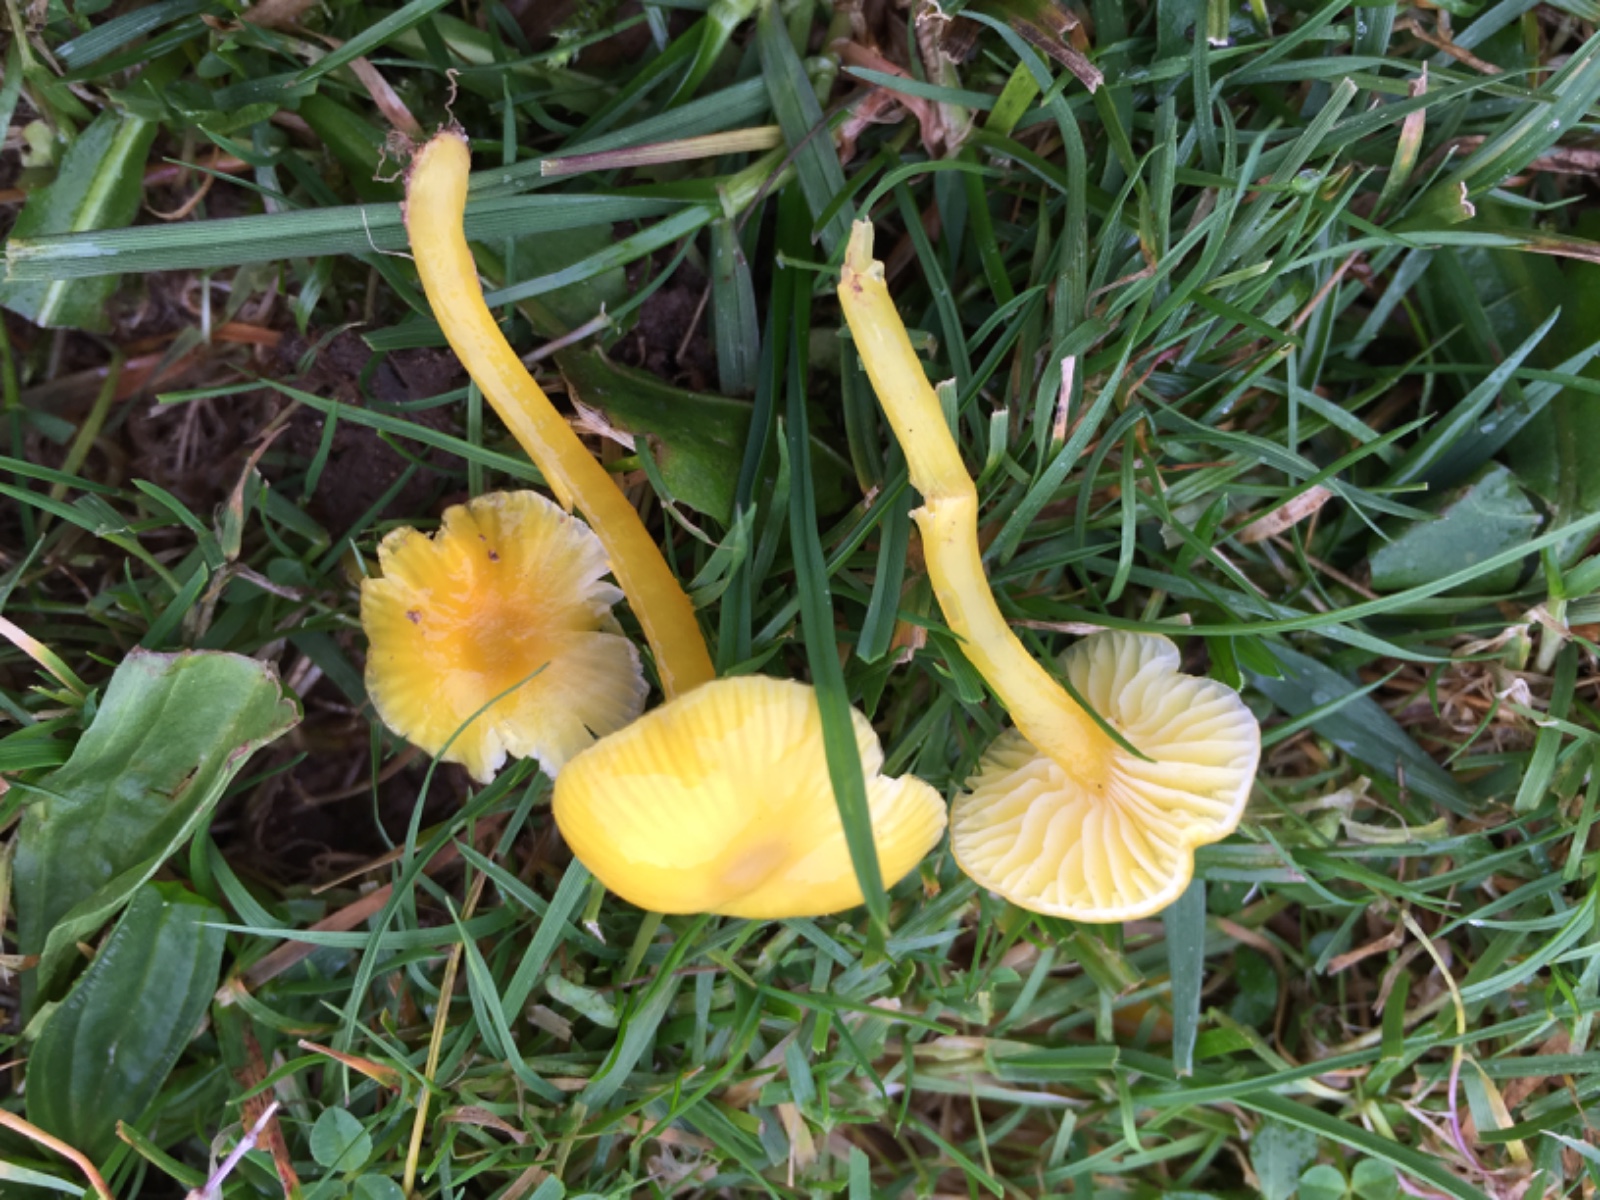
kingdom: Fungi
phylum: Basidiomycota
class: Agaricomycetes
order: Agaricales
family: Hygrophoraceae
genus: Hygrocybe
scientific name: Hygrocybe glutinipes
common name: slimstokket vokshat
